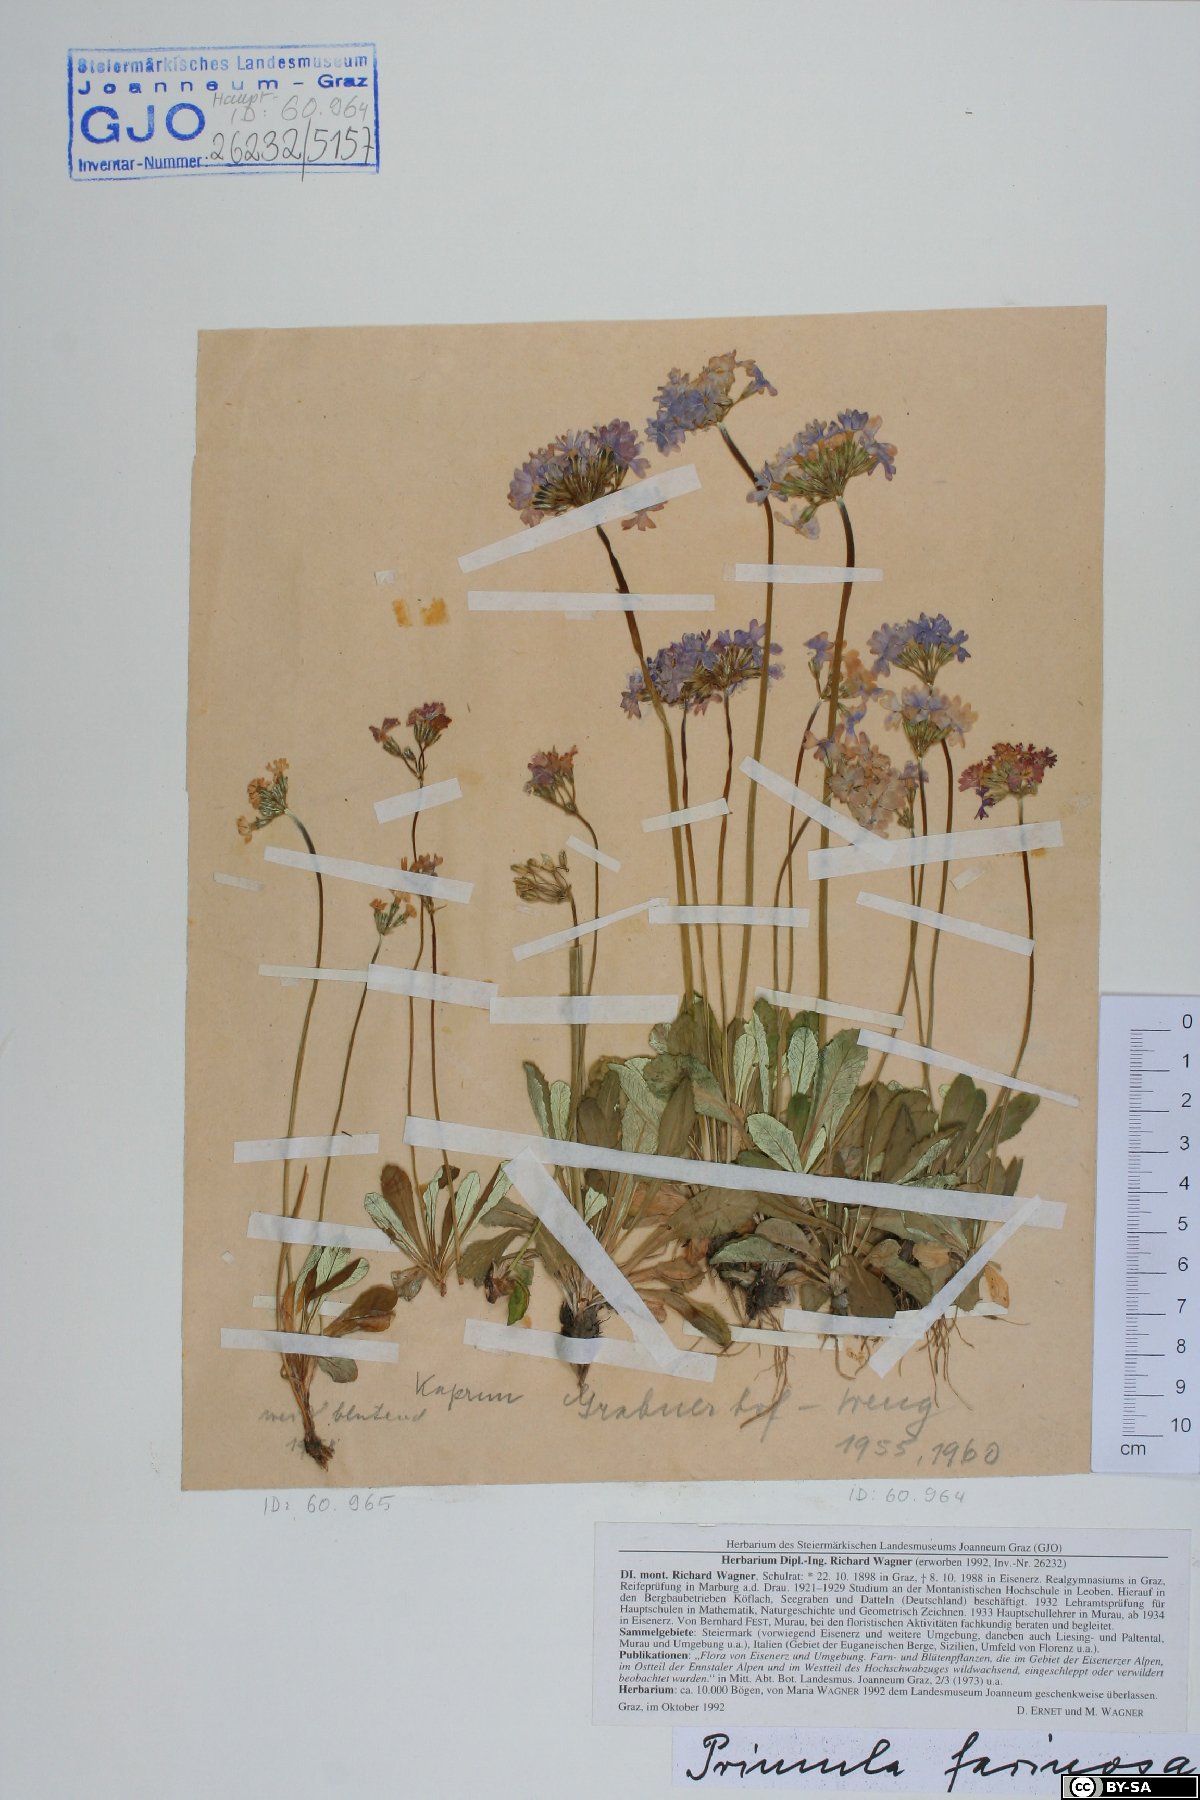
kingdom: Plantae
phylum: Tracheophyta
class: Magnoliopsida
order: Ericales
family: Primulaceae
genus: Primula
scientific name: Primula farinosa
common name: Bird's-eye primrose
